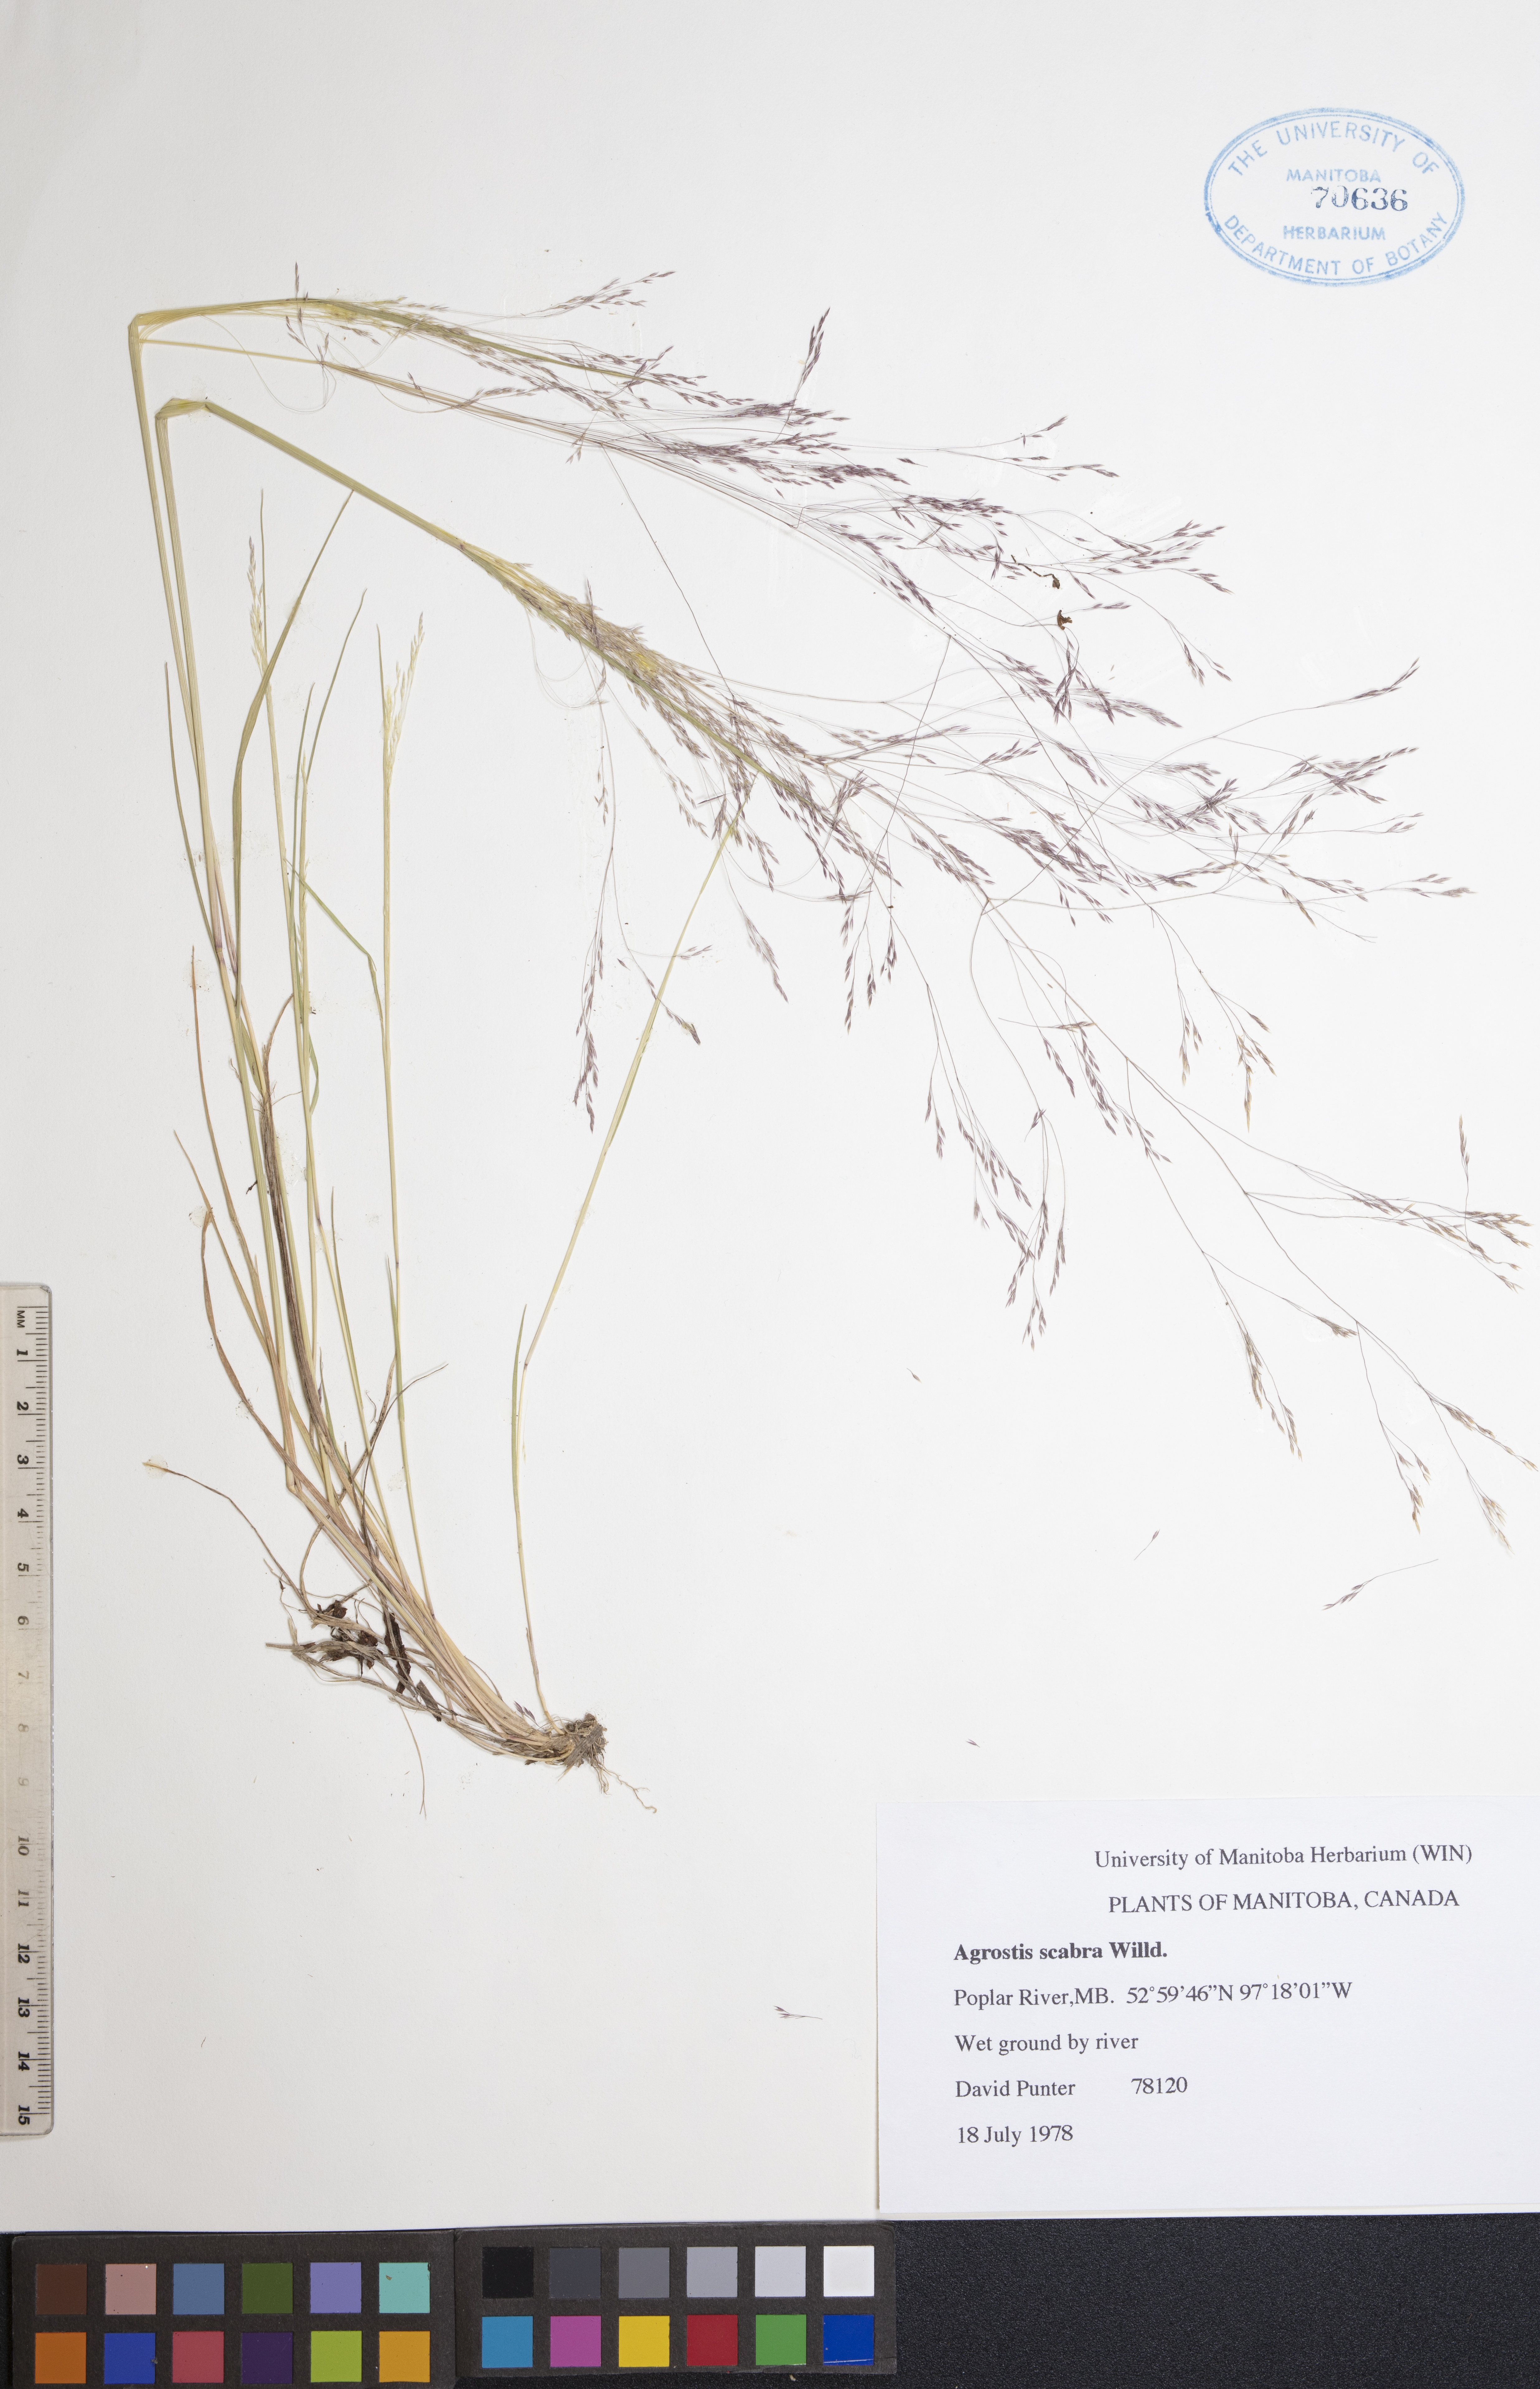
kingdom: Plantae
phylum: Tracheophyta
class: Liliopsida
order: Poales
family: Poaceae
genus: Agrostis
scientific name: Agrostis scabra
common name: Rough bent
